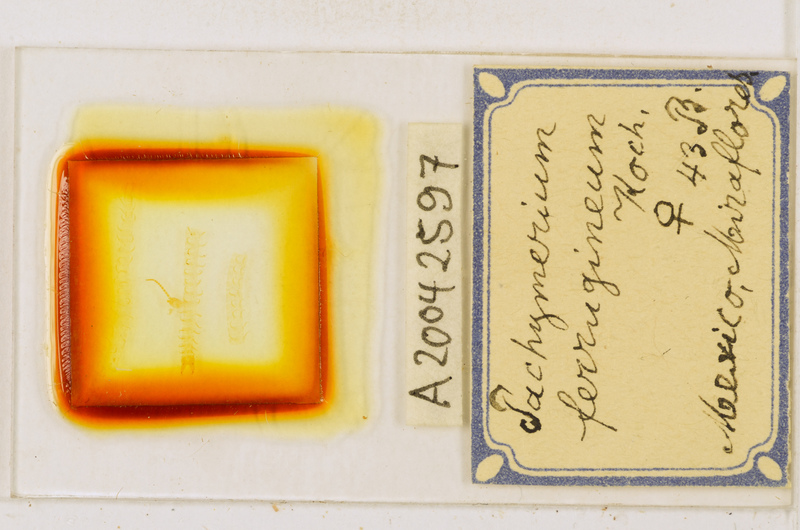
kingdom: Animalia
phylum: Arthropoda
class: Chilopoda
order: Geophilomorpha
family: Geophilidae
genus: Pachymerium
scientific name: Pachymerium ferrugineum
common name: Centipede
